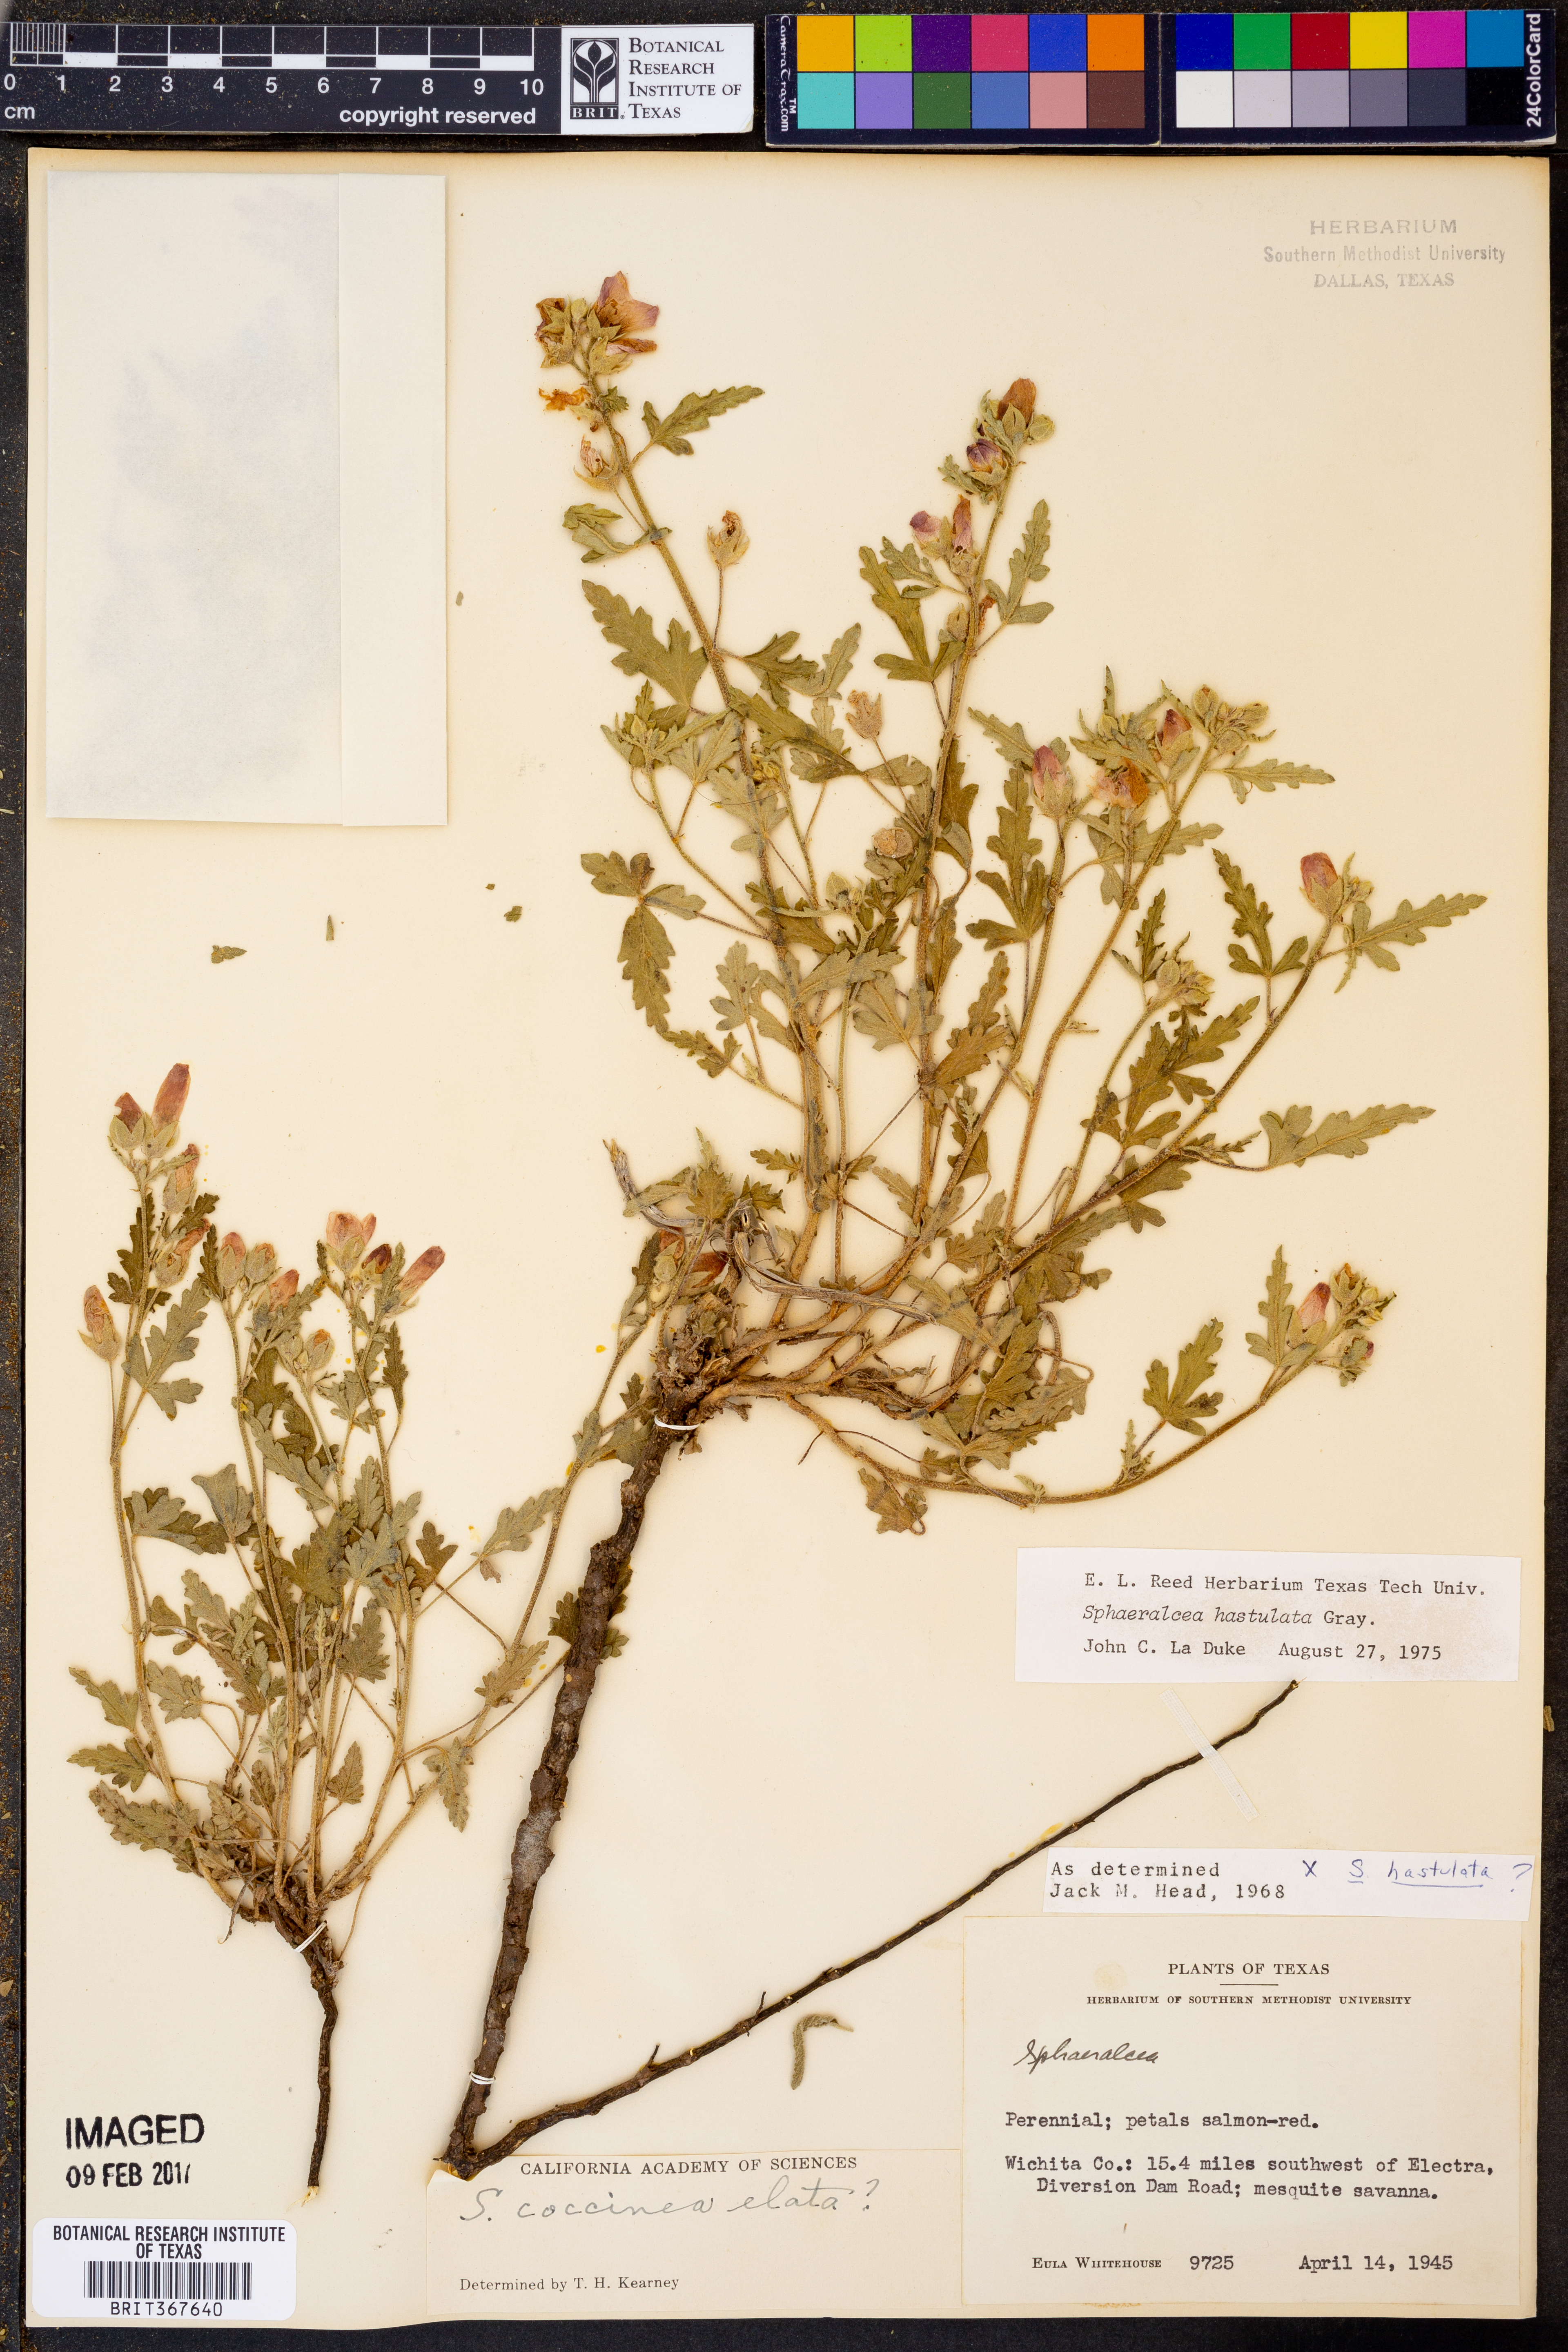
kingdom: Plantae
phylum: Tracheophyta
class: Magnoliopsida
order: Malvales
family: Malvaceae
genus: Sphaeralcea
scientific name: Sphaeralcea hastulata
